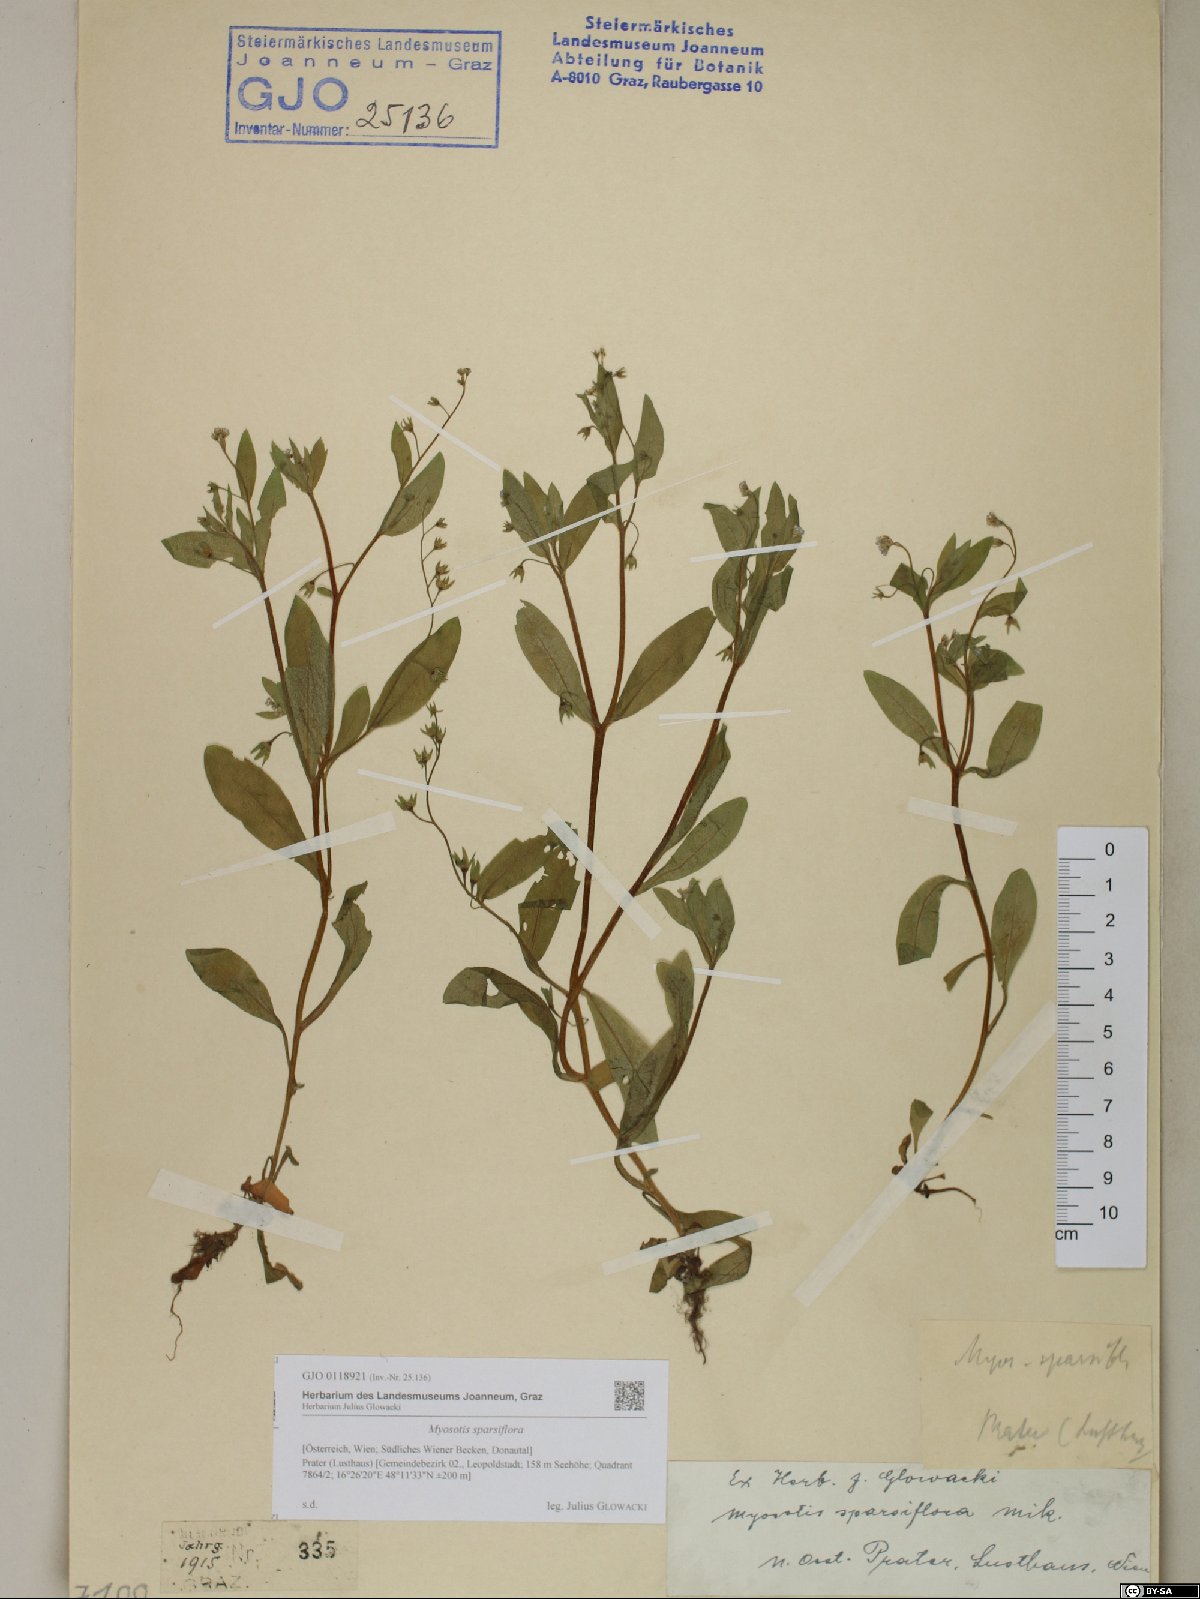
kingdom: Plantae
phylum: Tracheophyta
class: Magnoliopsida
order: Boraginales
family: Boraginaceae
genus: Myosotis
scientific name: Myosotis sparsiflora
